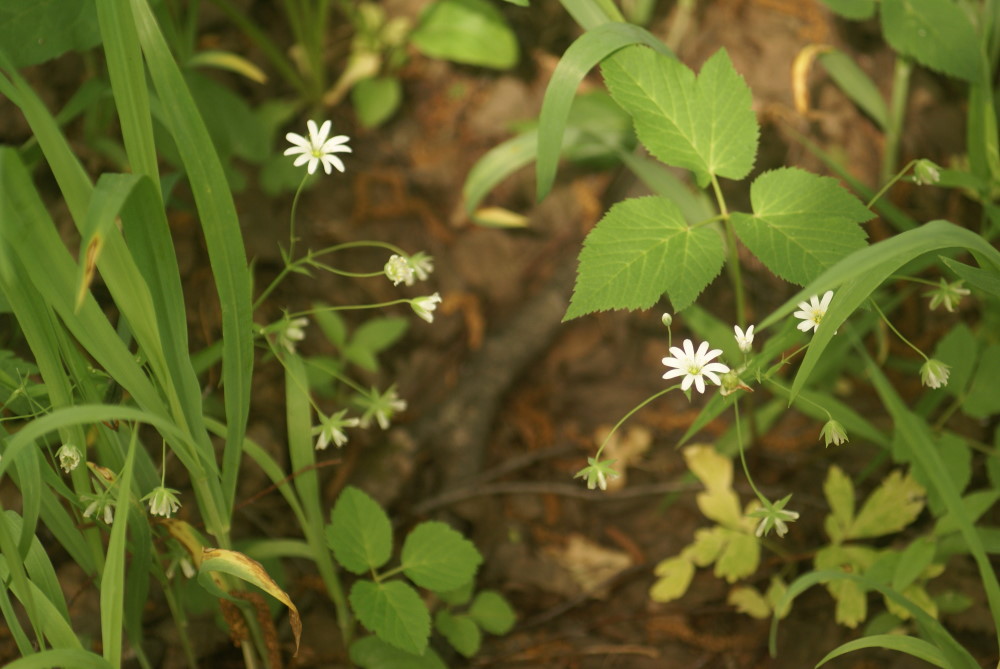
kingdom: Plantae
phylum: Tracheophyta
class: Magnoliopsida
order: Caryophyllales
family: Caryophyllaceae
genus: Rabelera
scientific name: Rabelera holostea
